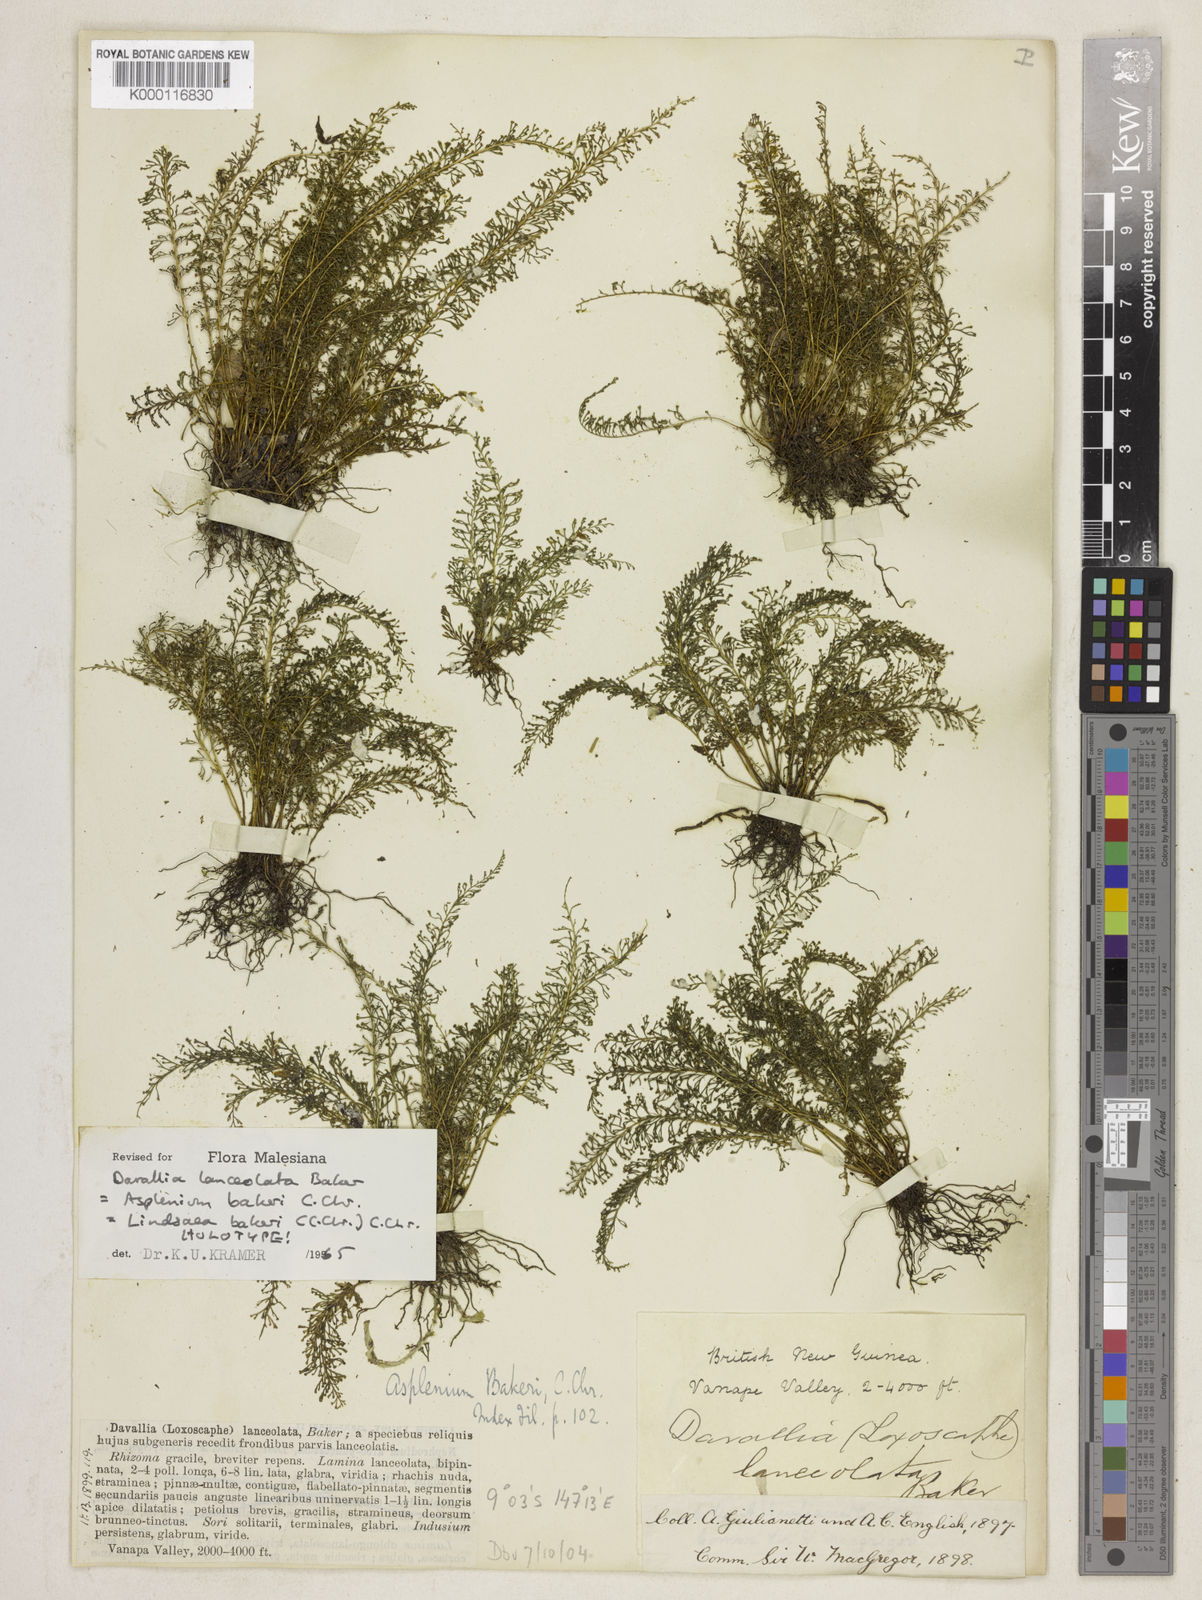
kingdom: Plantae
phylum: Tracheophyta
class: Polypodiopsida
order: Polypodiales
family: Lindsaeaceae
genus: Lindsaea
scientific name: Lindsaea bakeri
